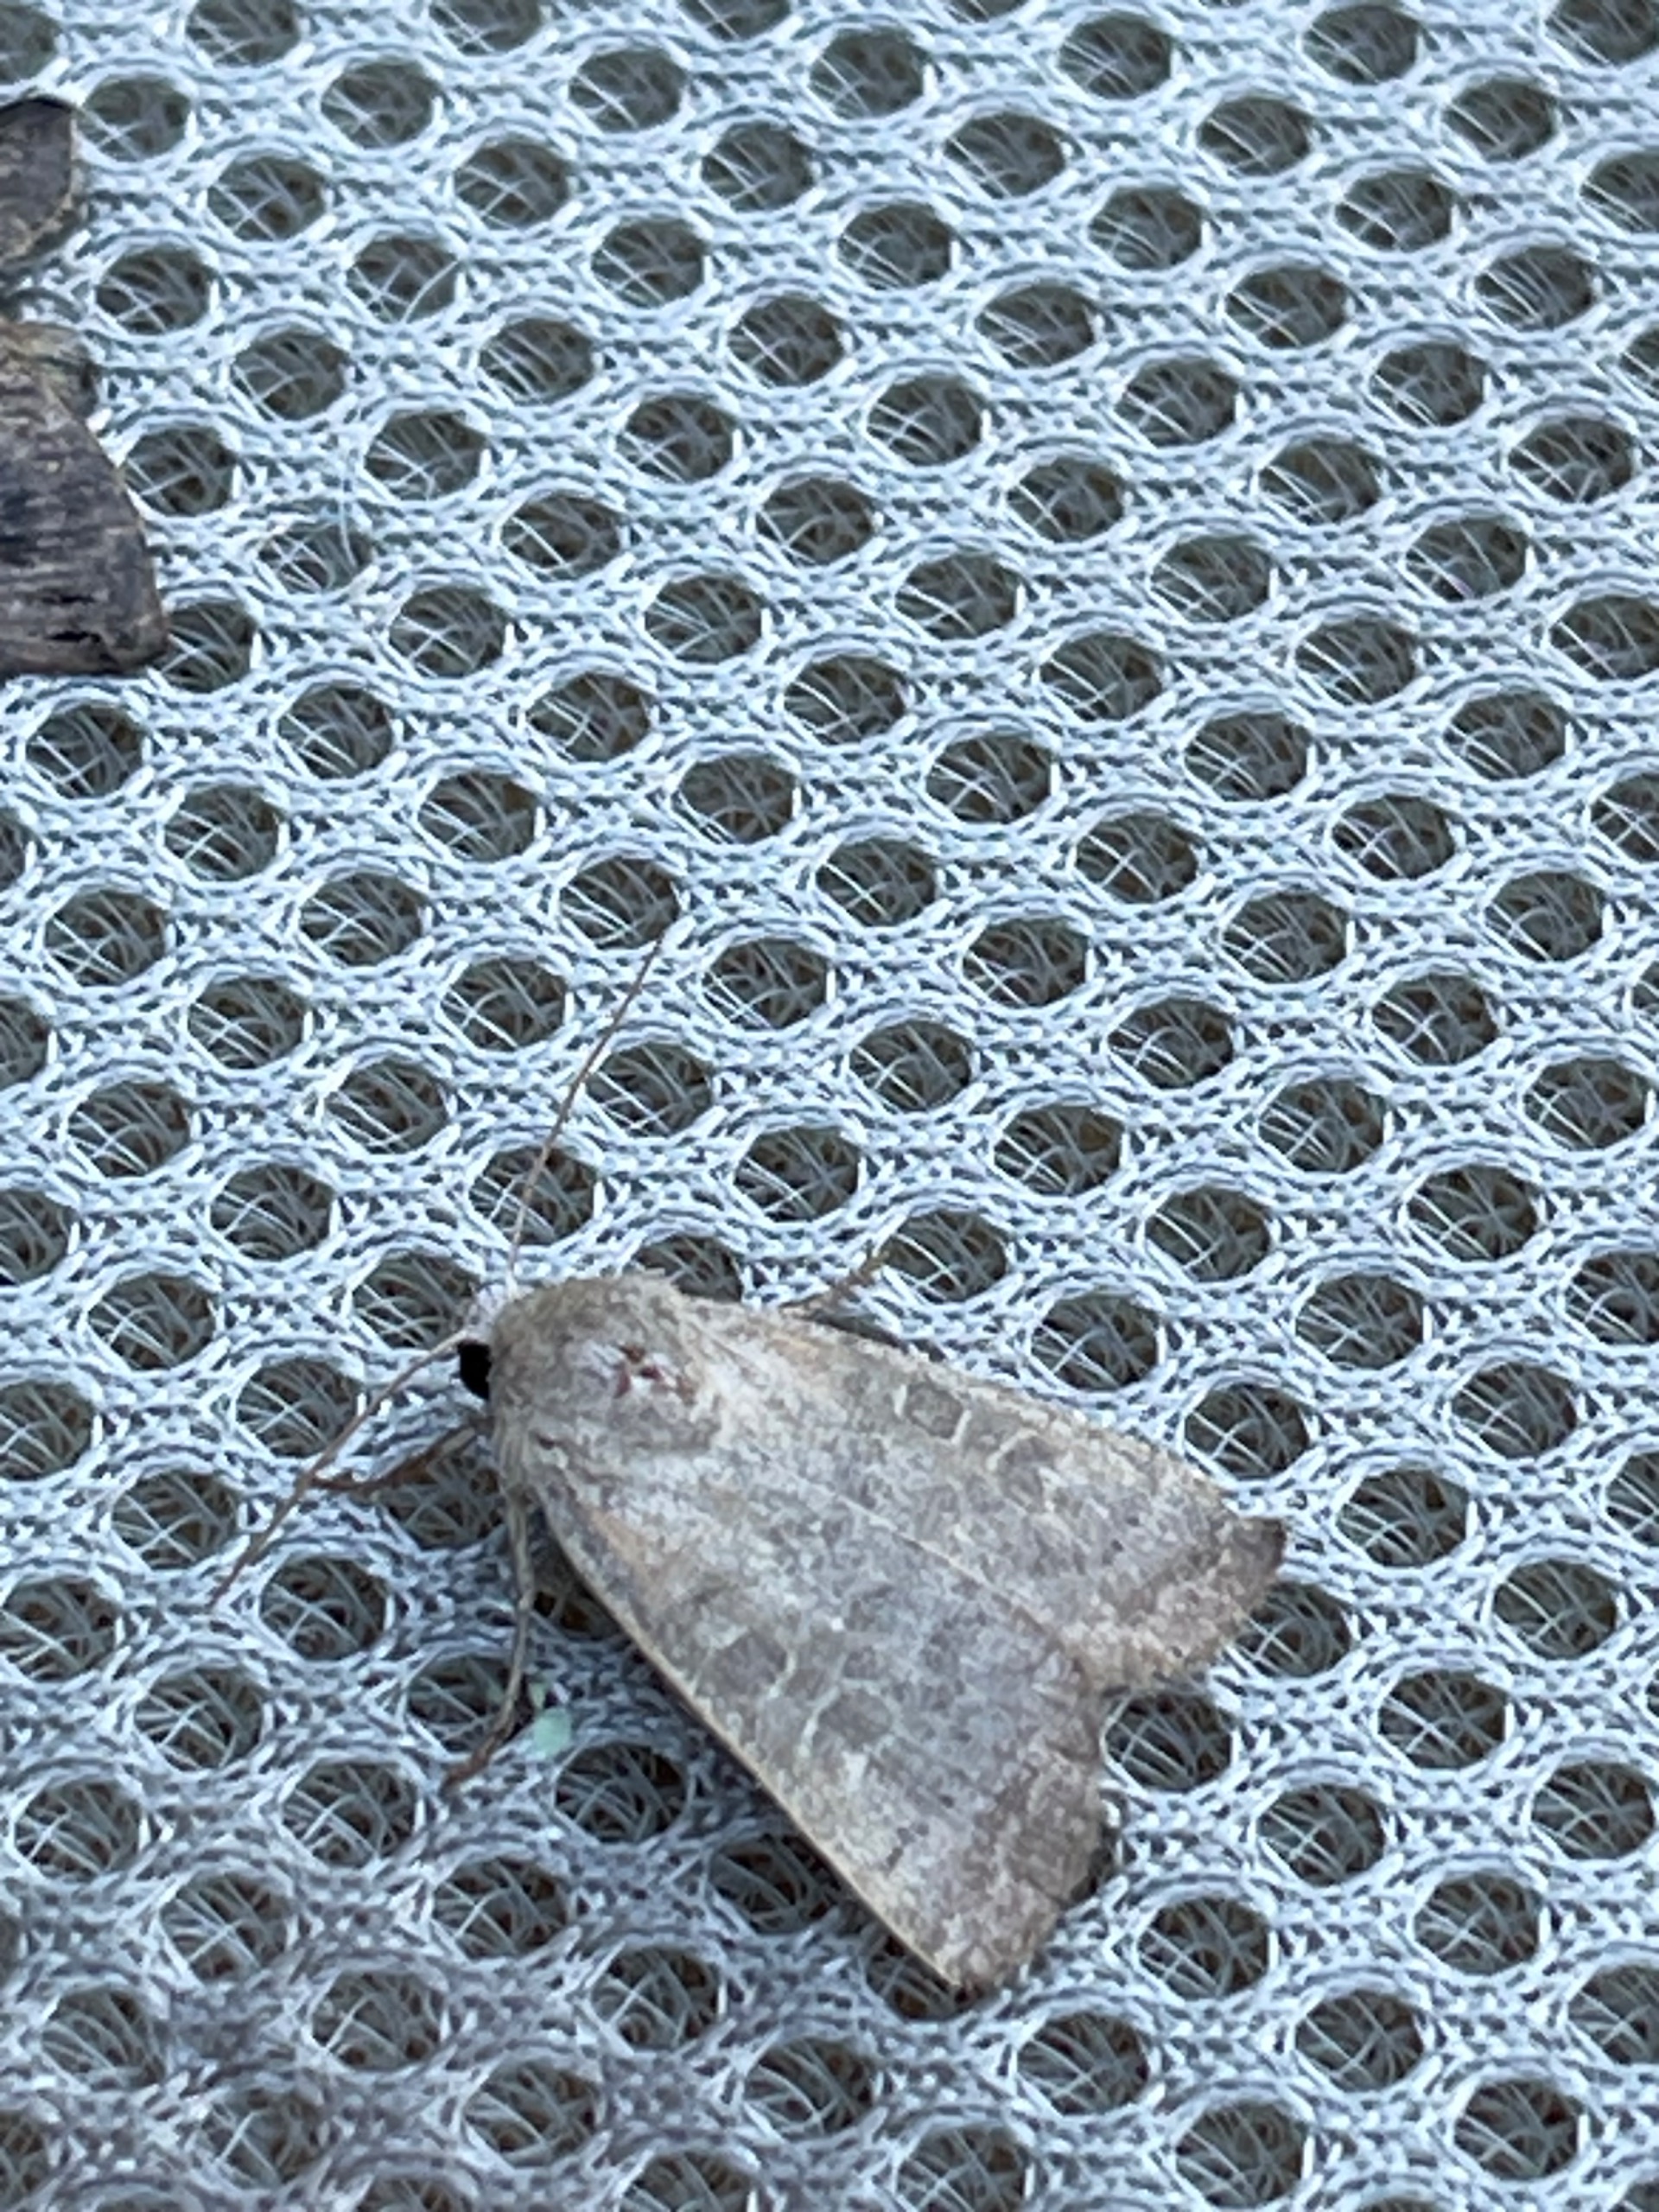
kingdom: Animalia
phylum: Arthropoda
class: Insecta
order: Lepidoptera
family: Noctuidae
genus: Hoplodrina
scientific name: Hoplodrina ambigua
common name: Tvivlsom mus
